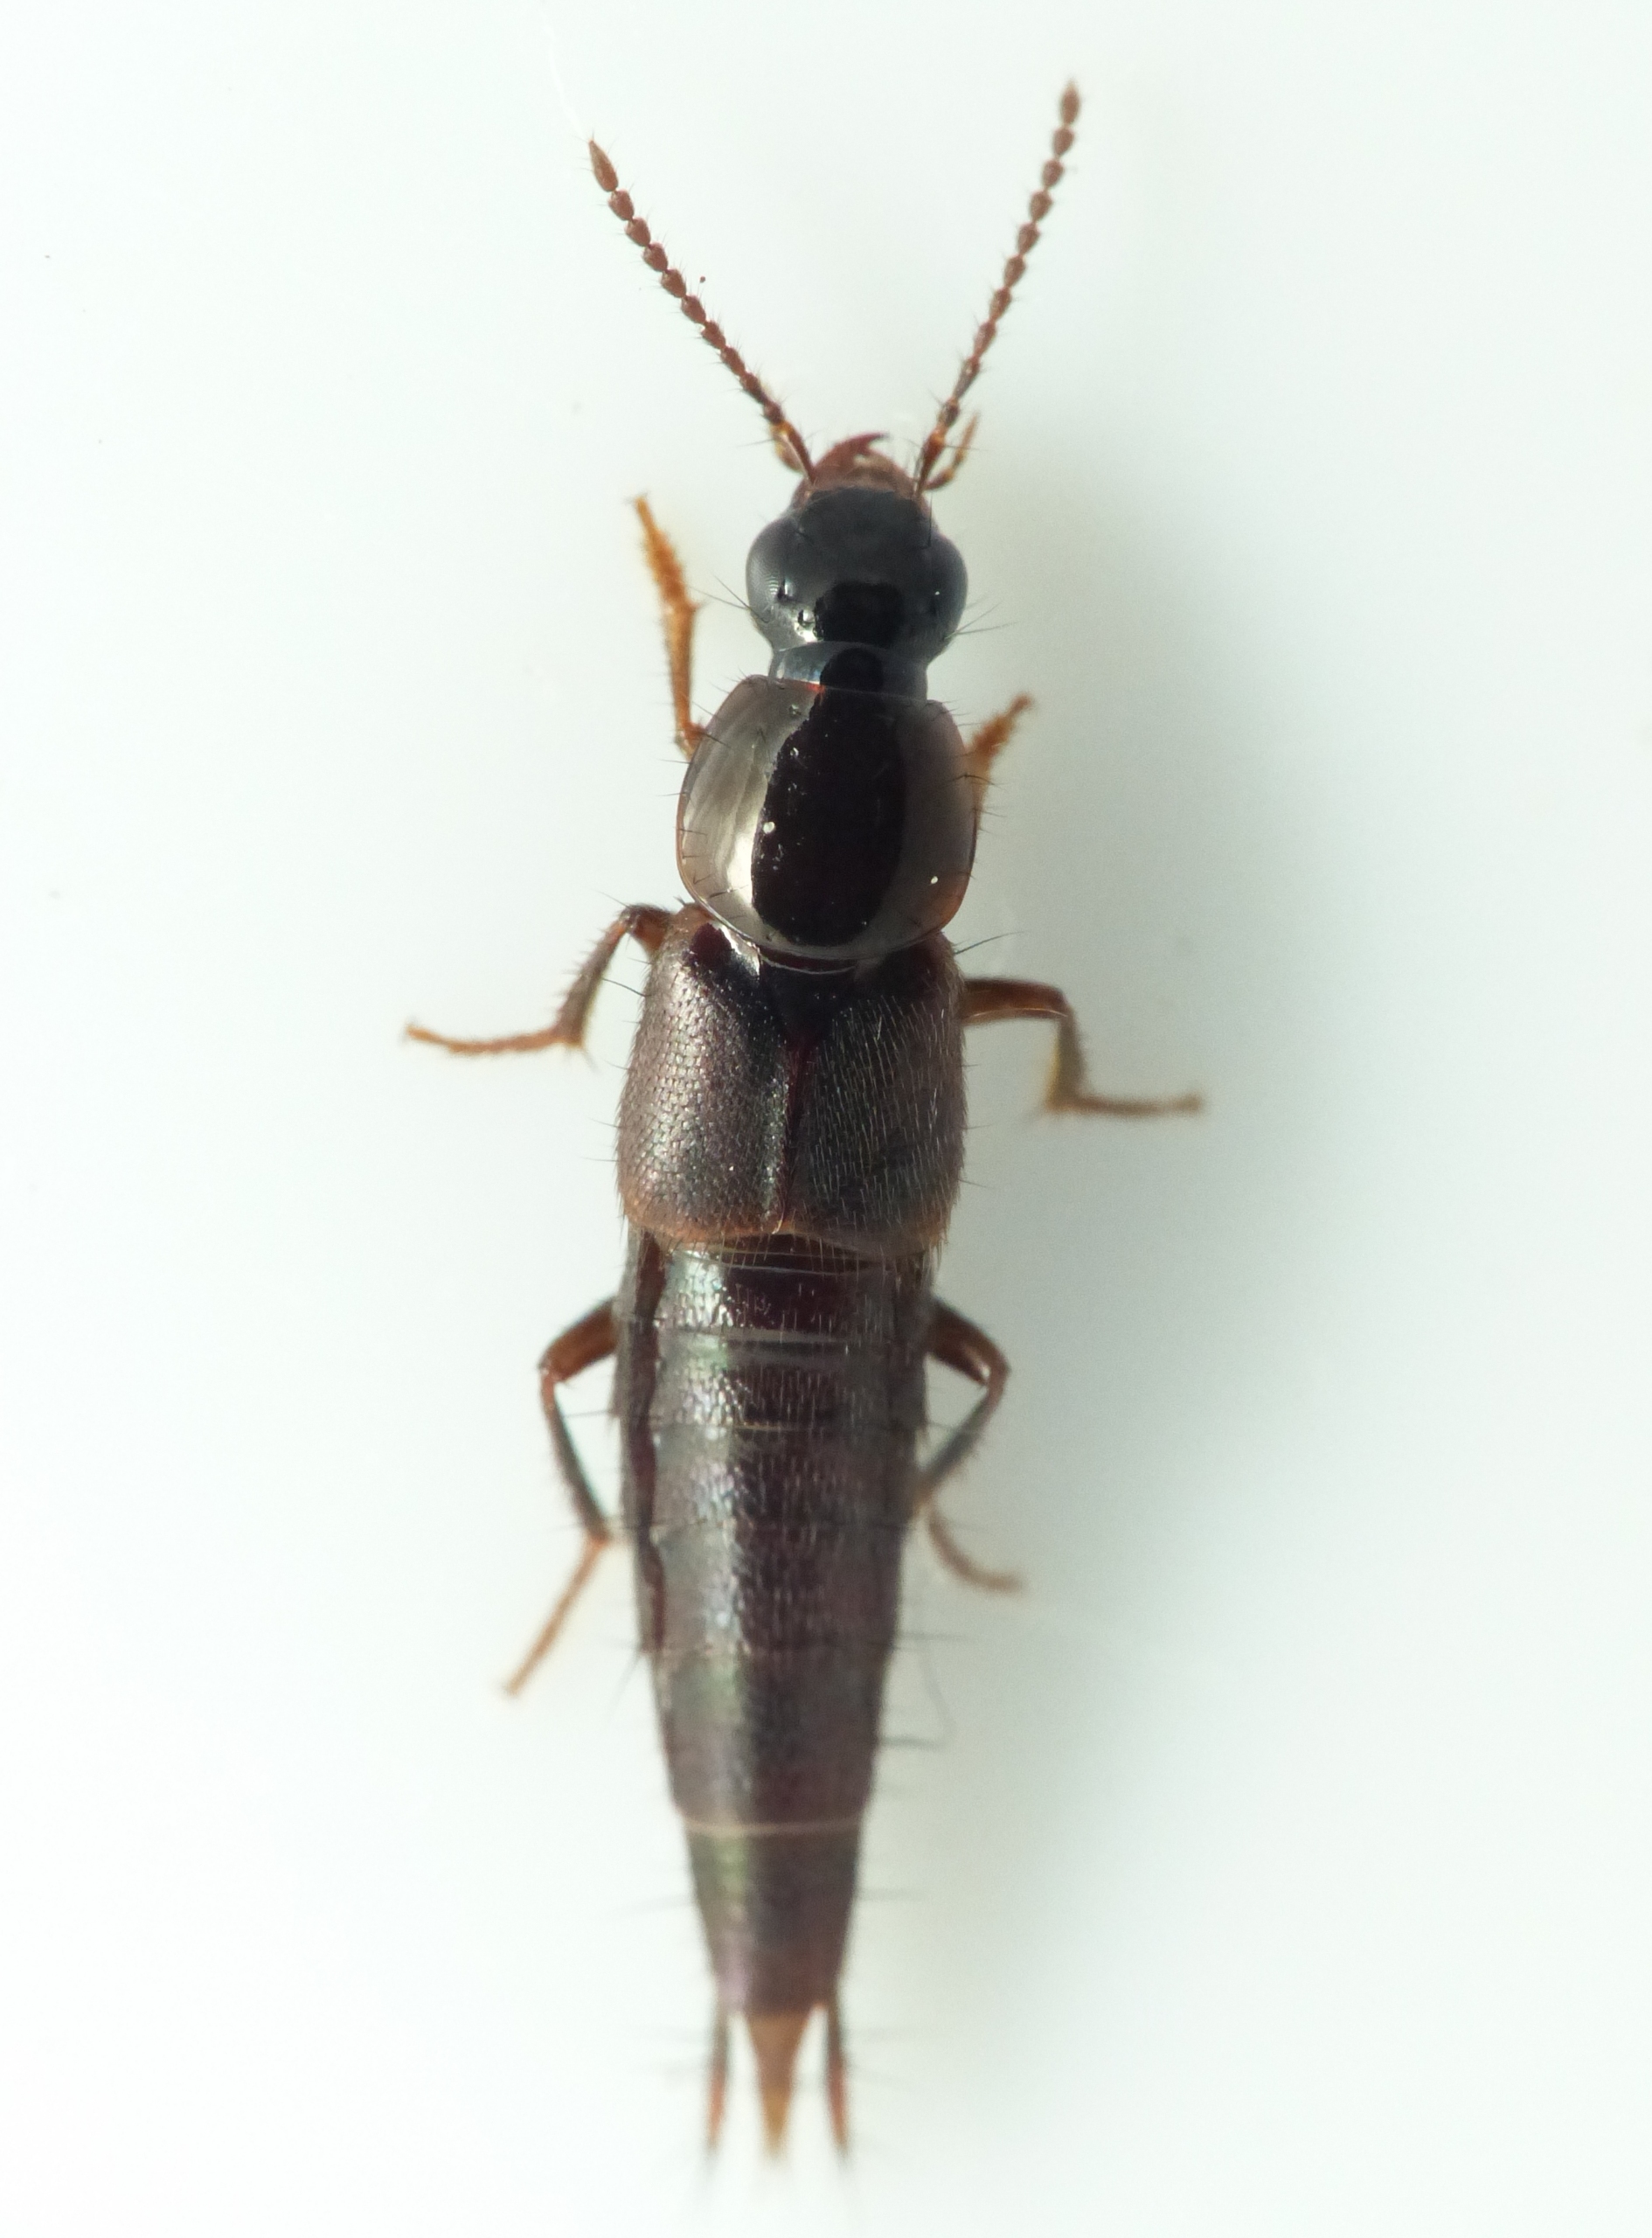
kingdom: Animalia
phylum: Arthropoda
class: Insecta
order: Coleoptera
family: Staphylinidae
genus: Quedius
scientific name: Quedius fumatus
